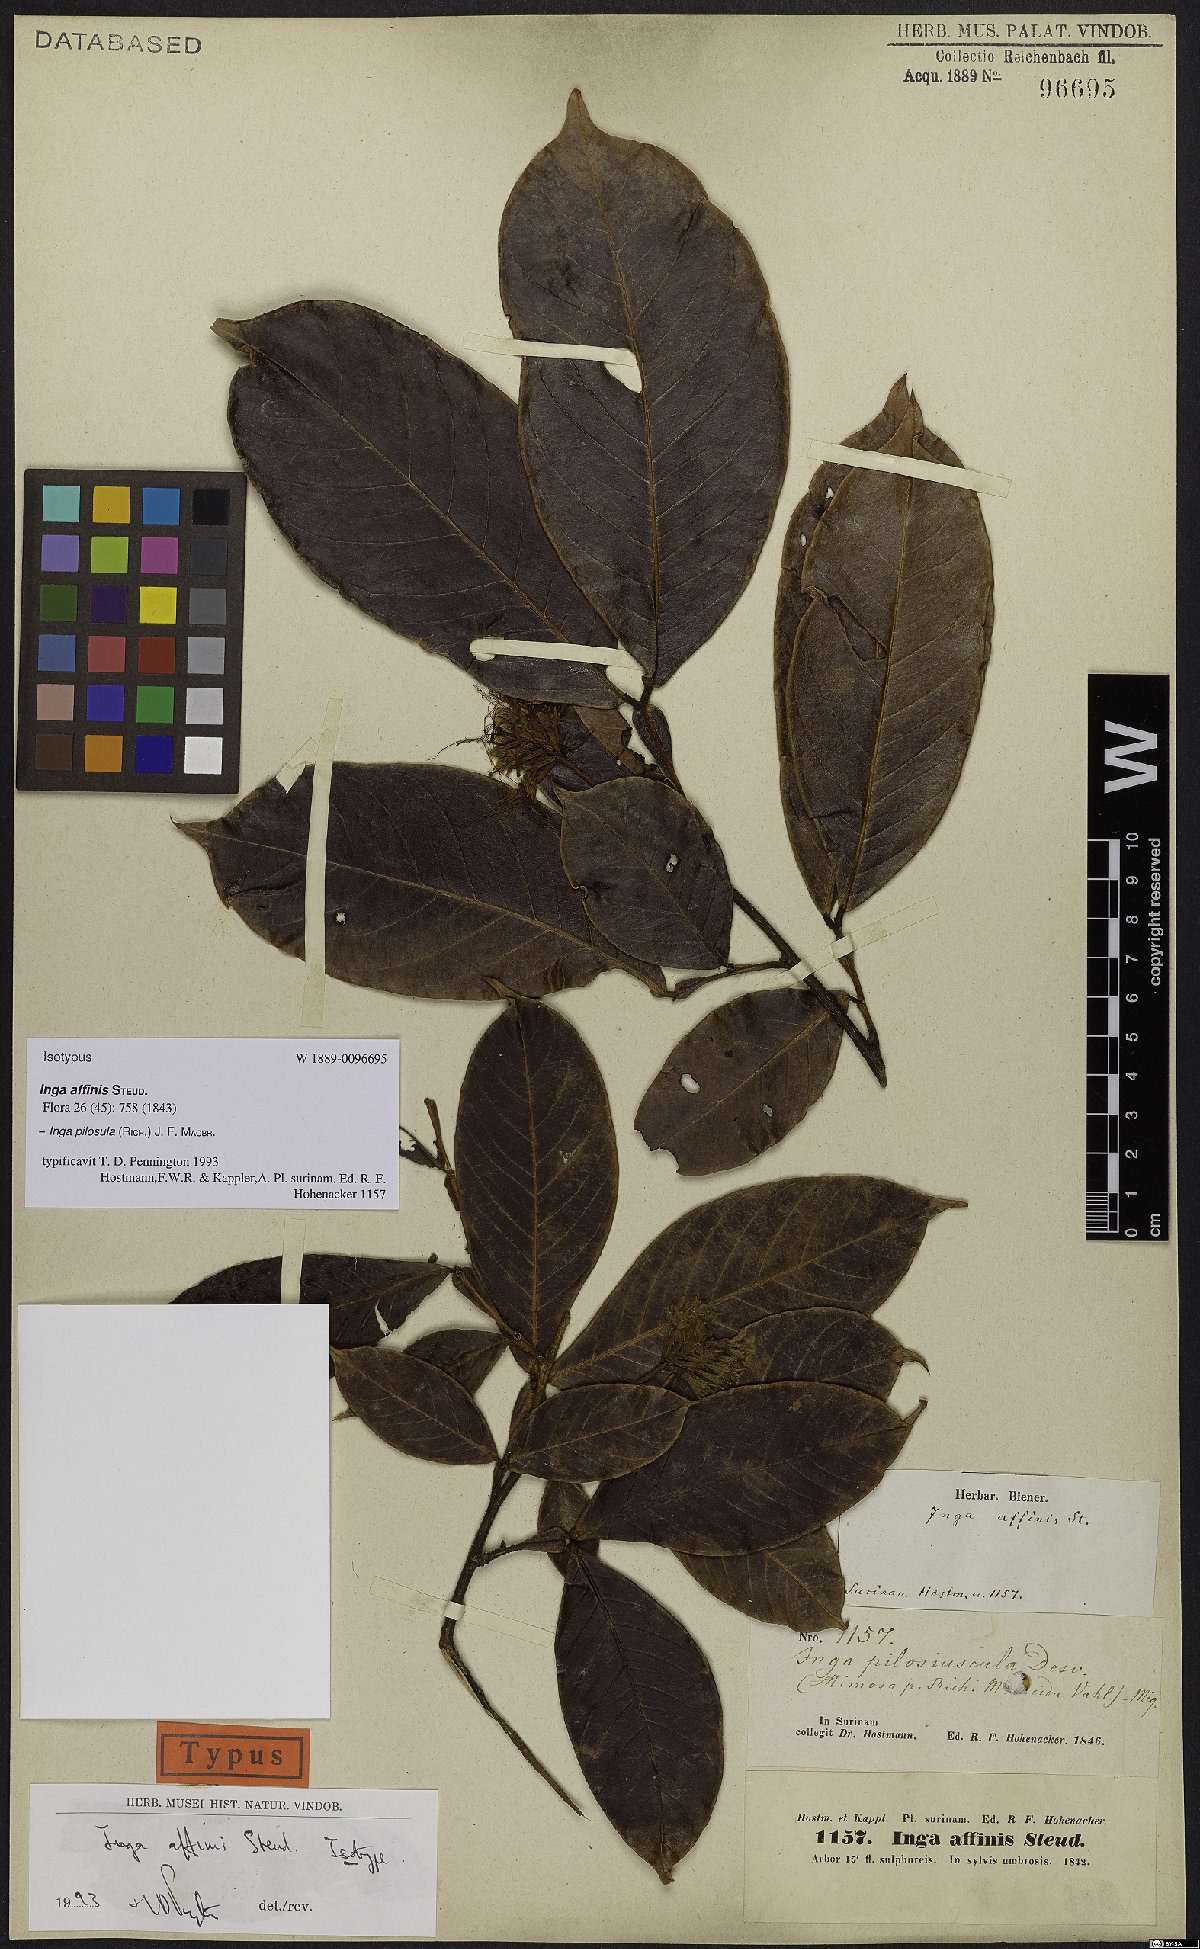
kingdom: Plantae
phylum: Tracheophyta
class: Magnoliopsida
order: Fabales
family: Fabaceae
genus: Inga
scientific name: Inga pilosula
